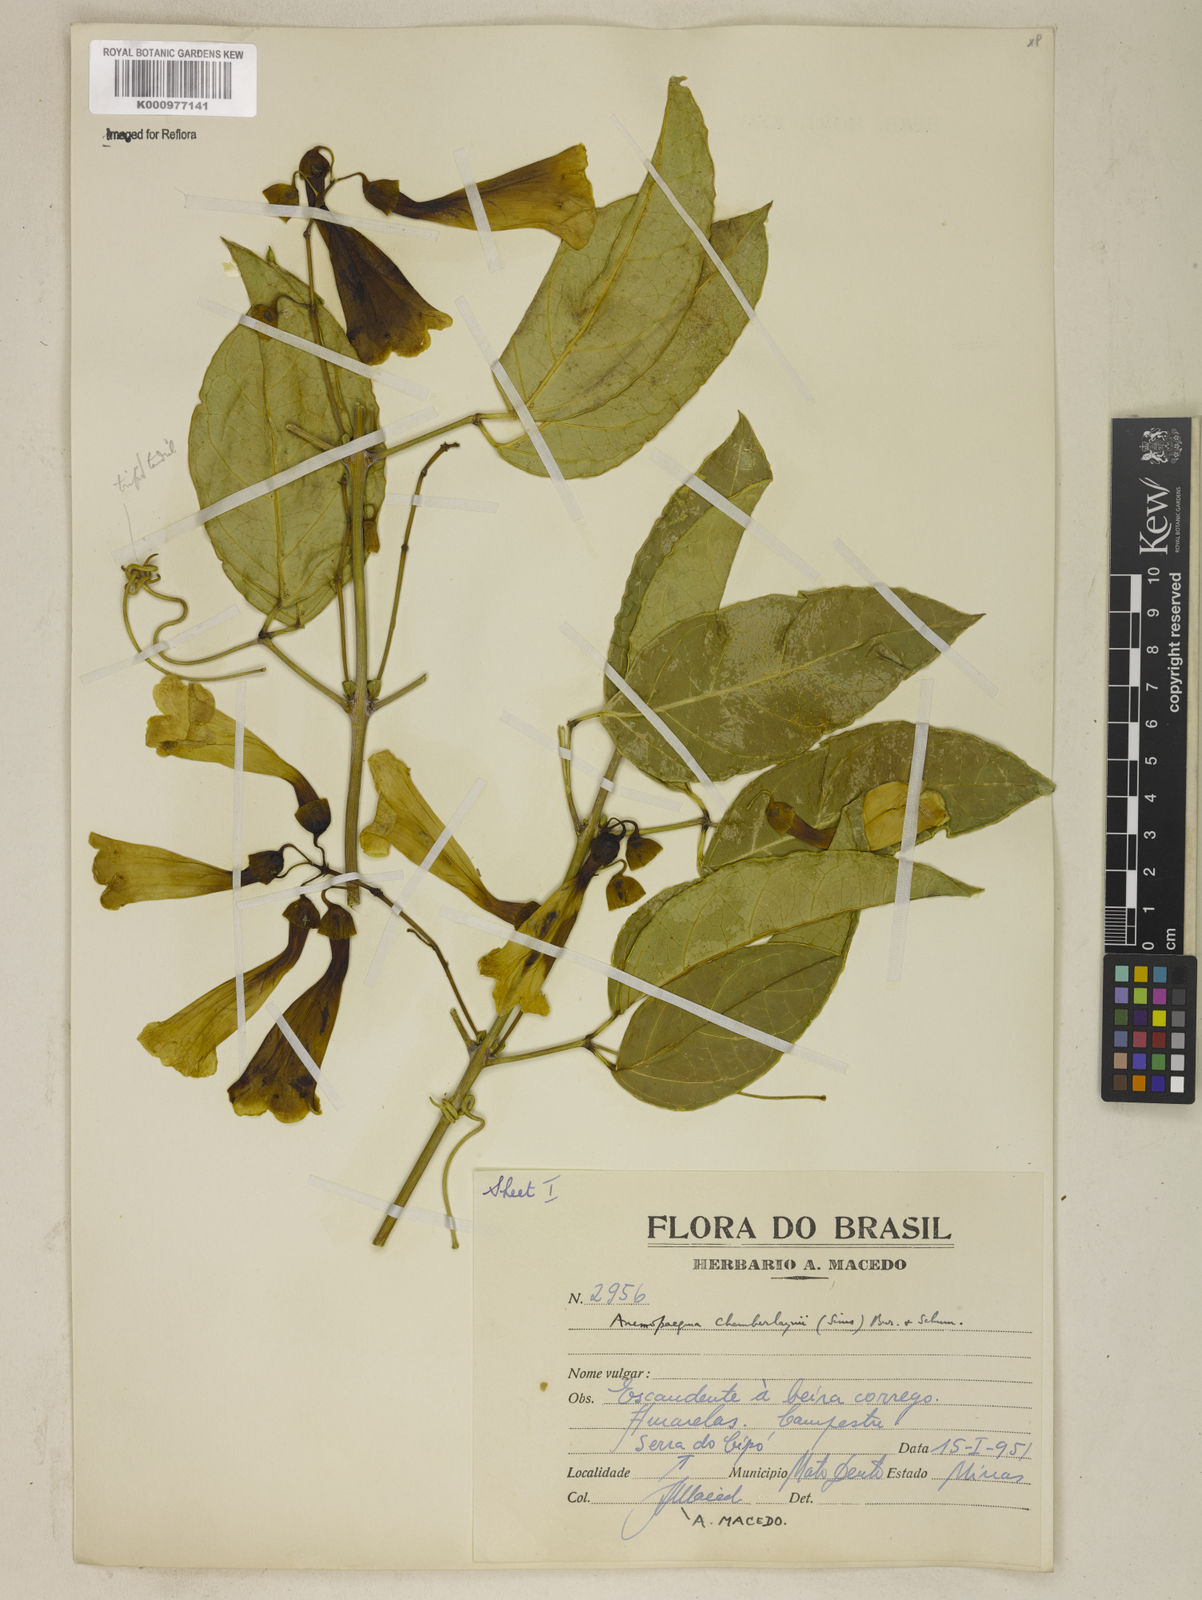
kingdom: Plantae
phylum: Tracheophyta
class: Magnoliopsida
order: Lamiales
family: Bignoniaceae
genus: Anemopaegma
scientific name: Anemopaegma chamberlaynii
